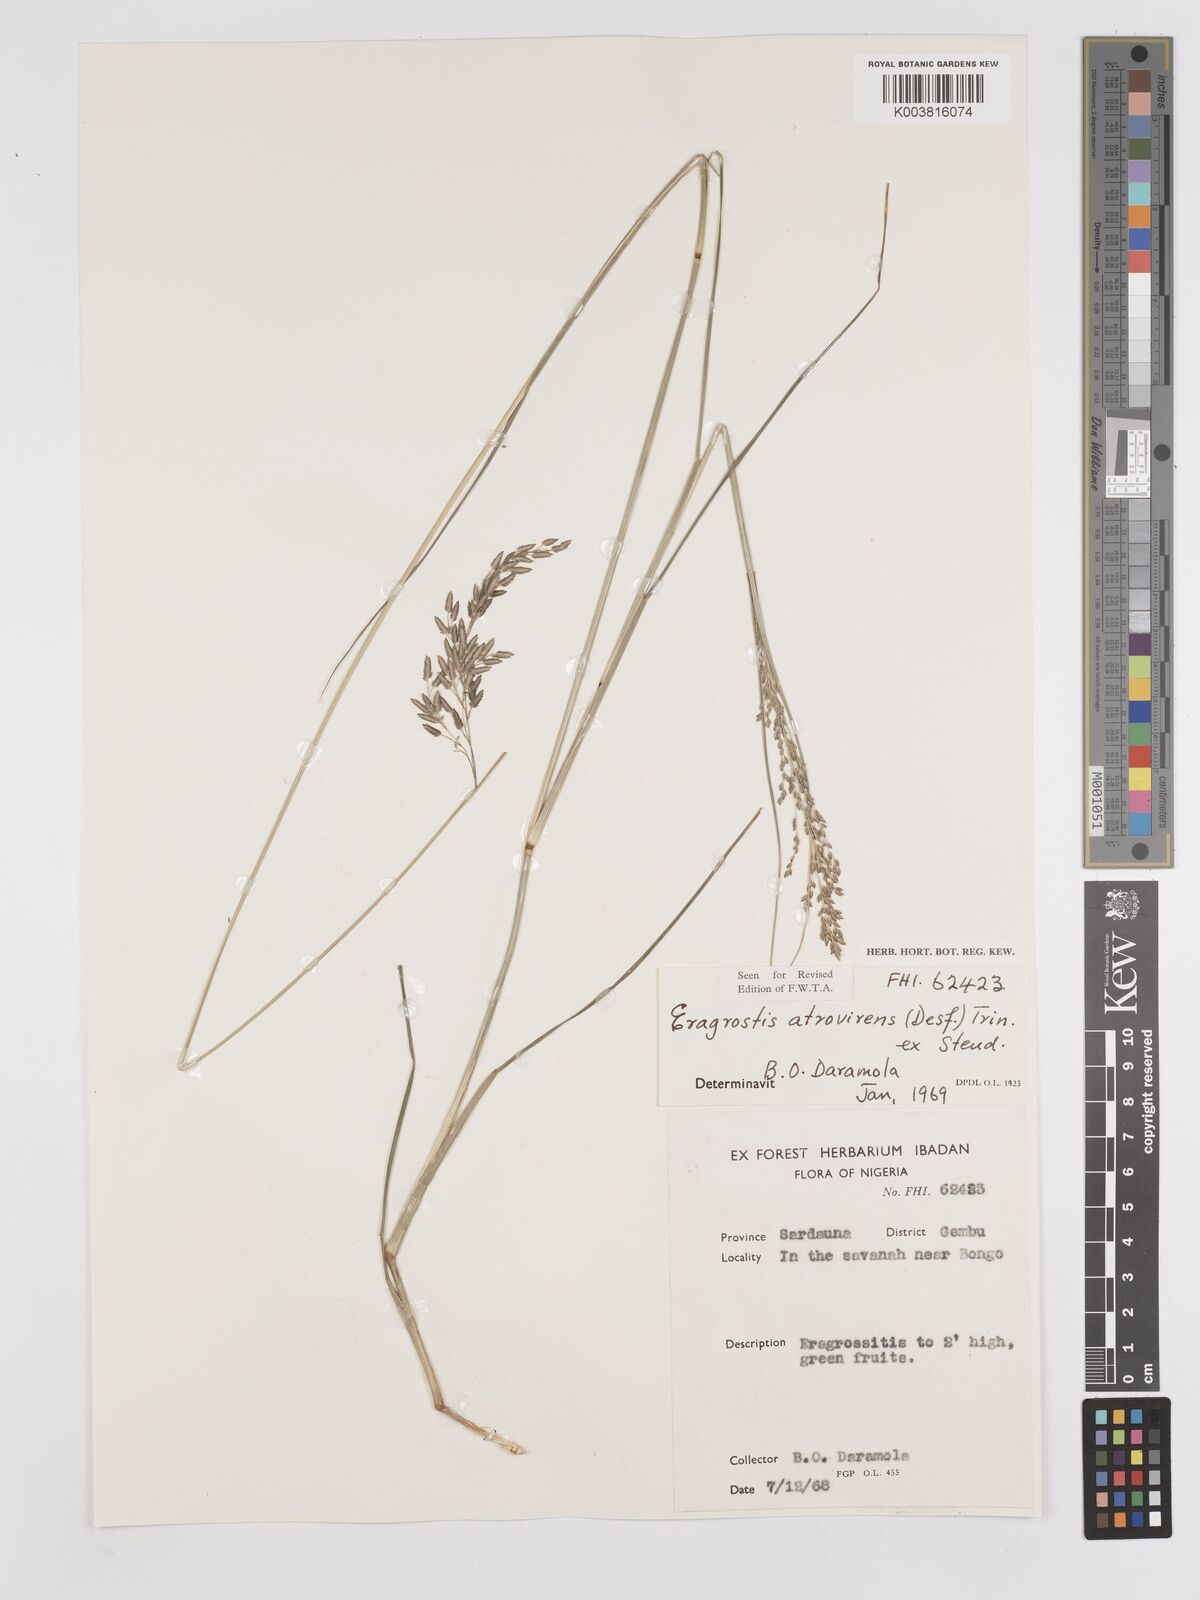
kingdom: Plantae
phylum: Tracheophyta
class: Liliopsida
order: Poales
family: Poaceae
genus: Eragrostis
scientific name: Eragrostis atrovirens
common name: Thalia lovegrass
